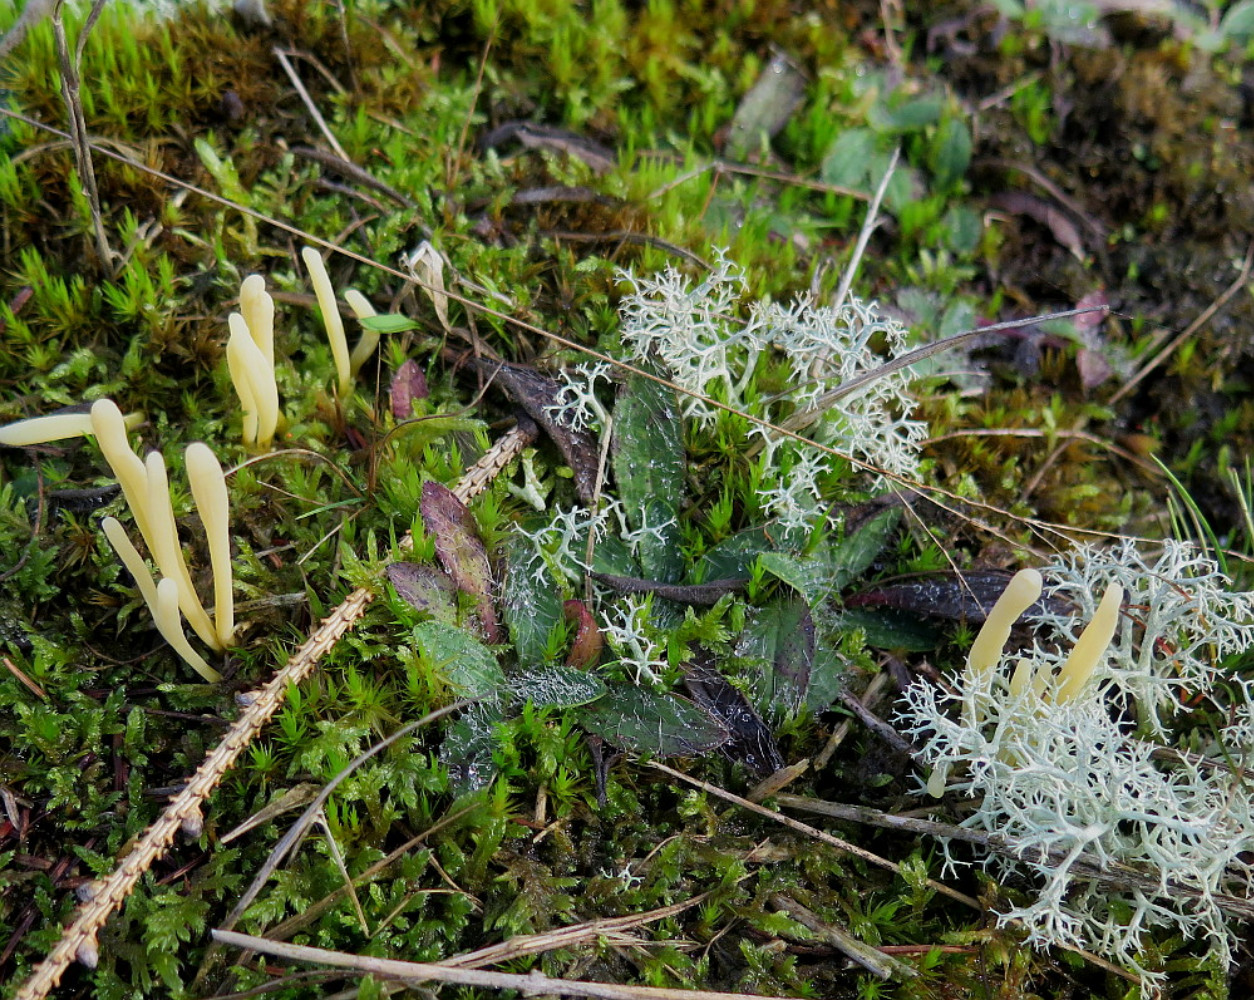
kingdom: Fungi
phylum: Basidiomycota
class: Agaricomycetes
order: Agaricales
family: Clavariaceae
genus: Clavaria
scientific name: Clavaria argillacea
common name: lerfarvet køllesvamp
